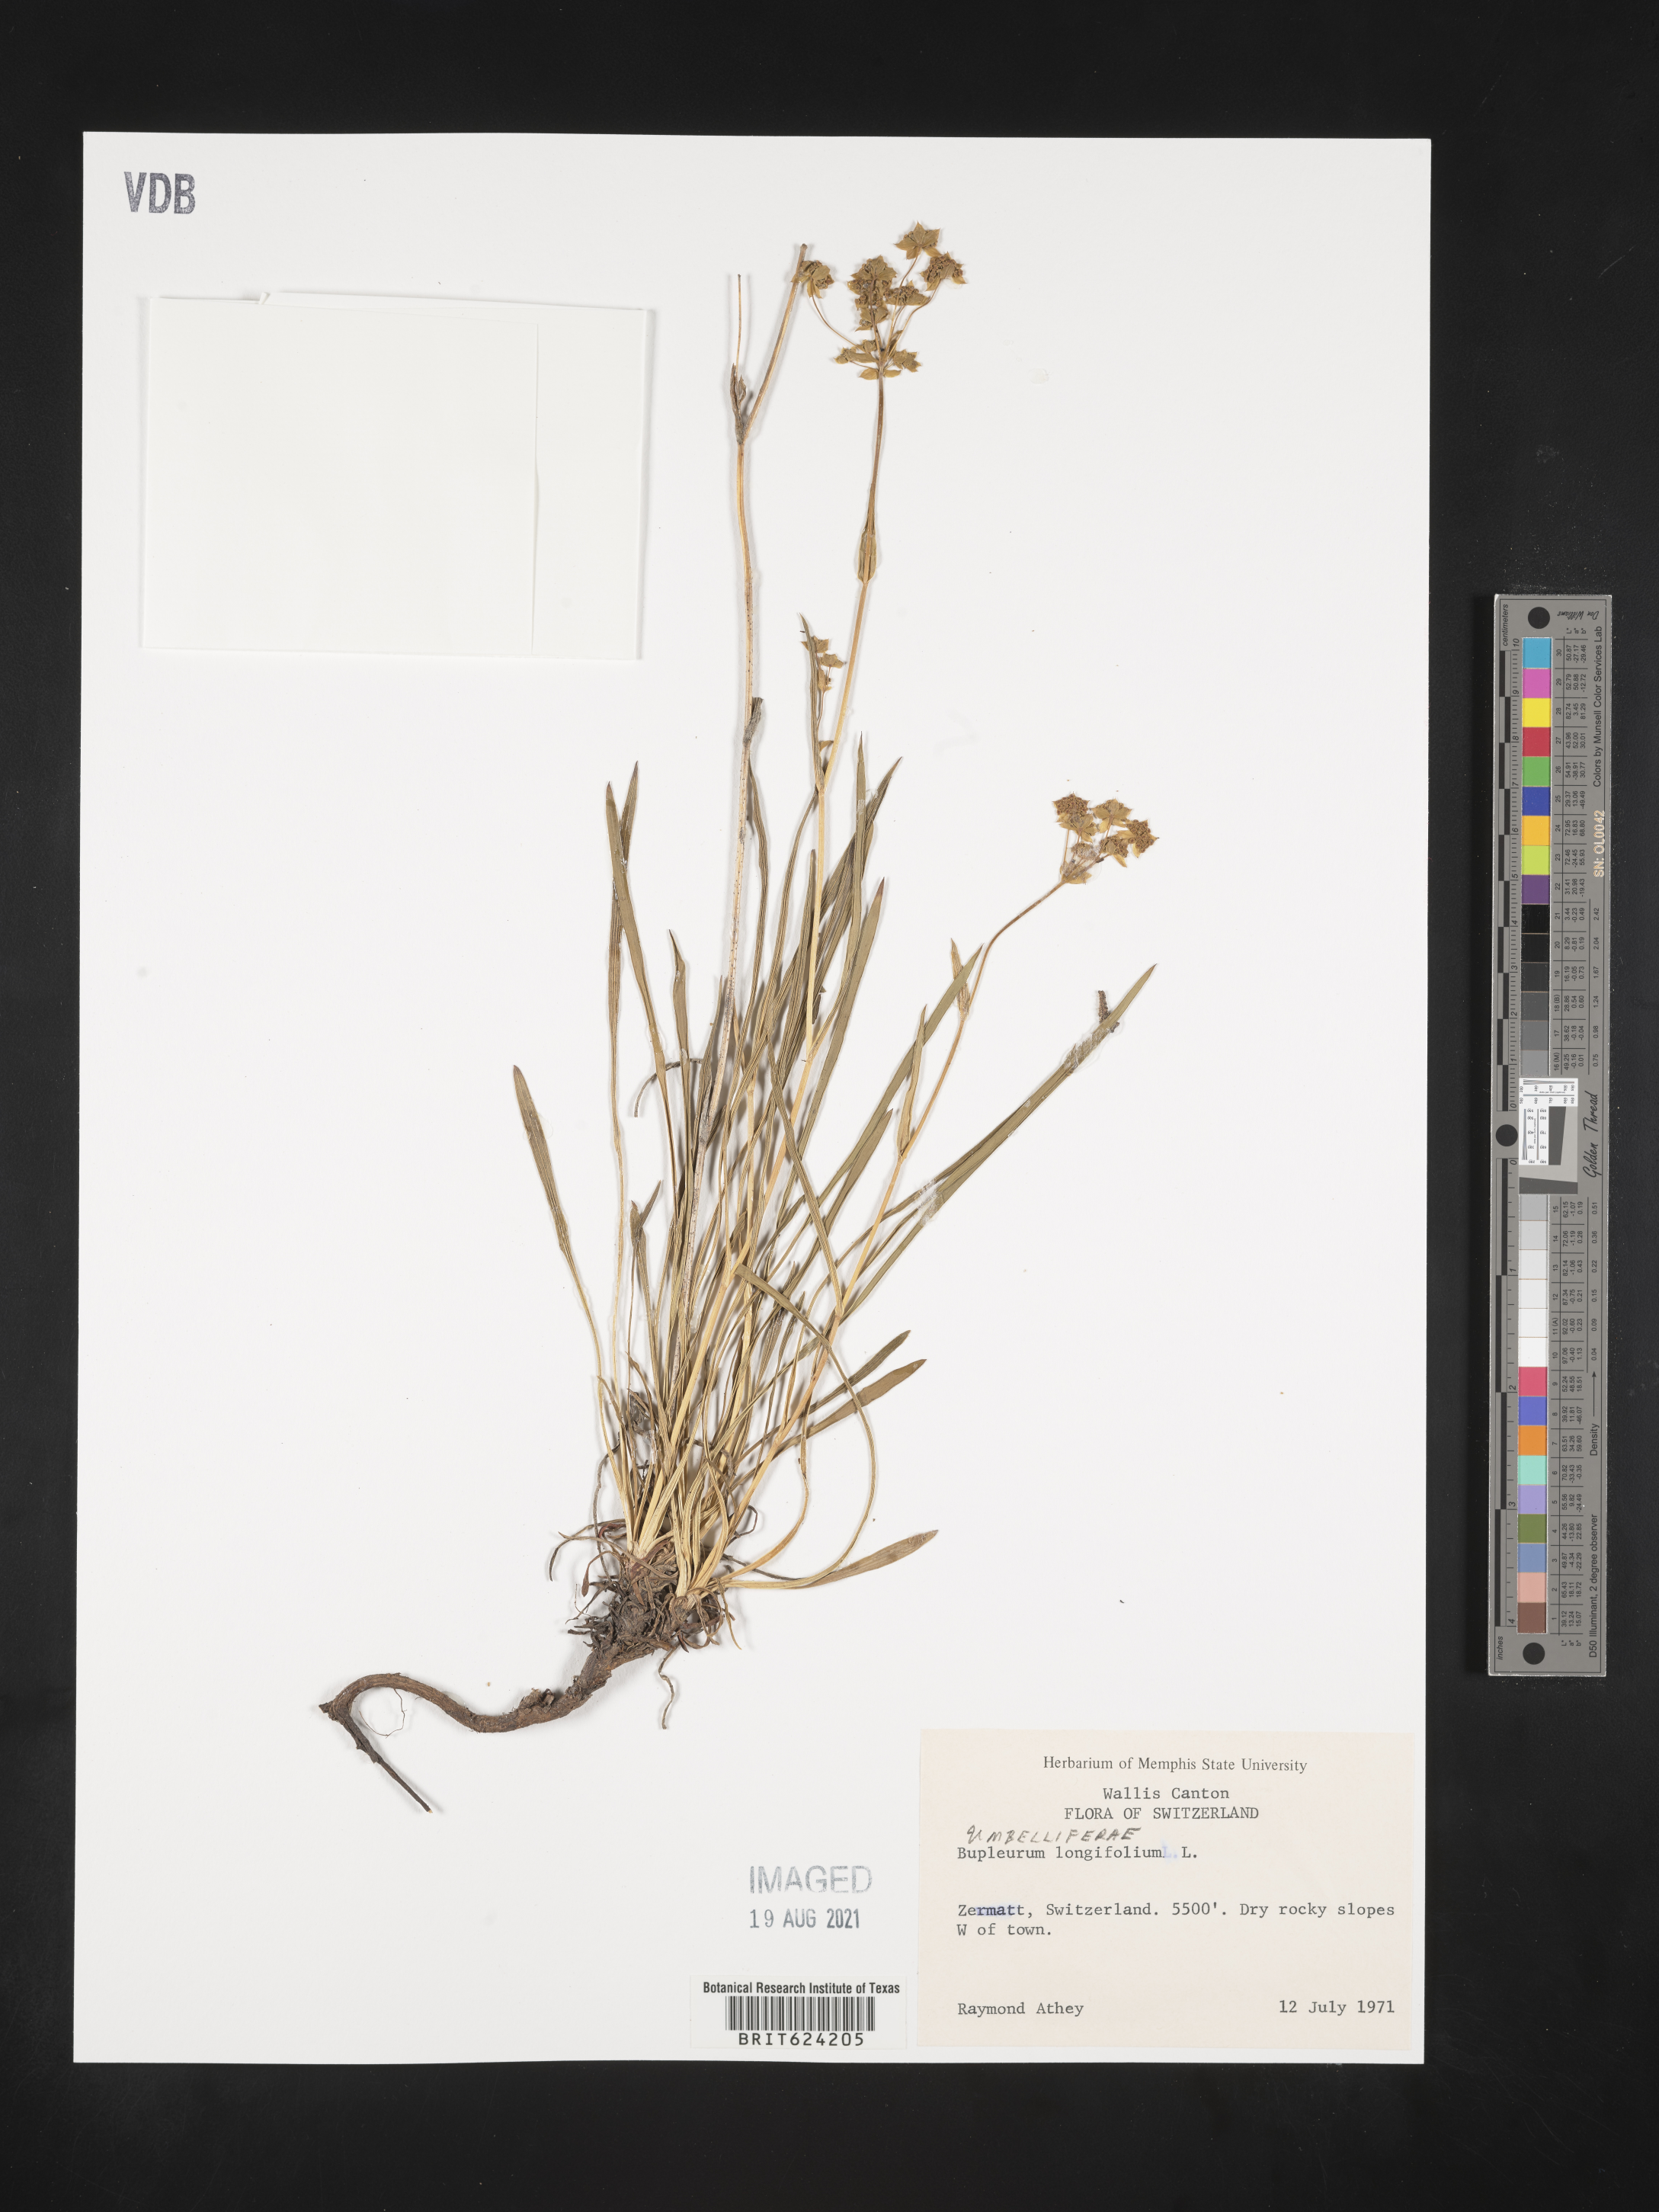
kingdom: Plantae
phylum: Tracheophyta
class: Magnoliopsida
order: Apiales
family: Apiaceae
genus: Bupleurum
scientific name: Bupleurum longifolium
